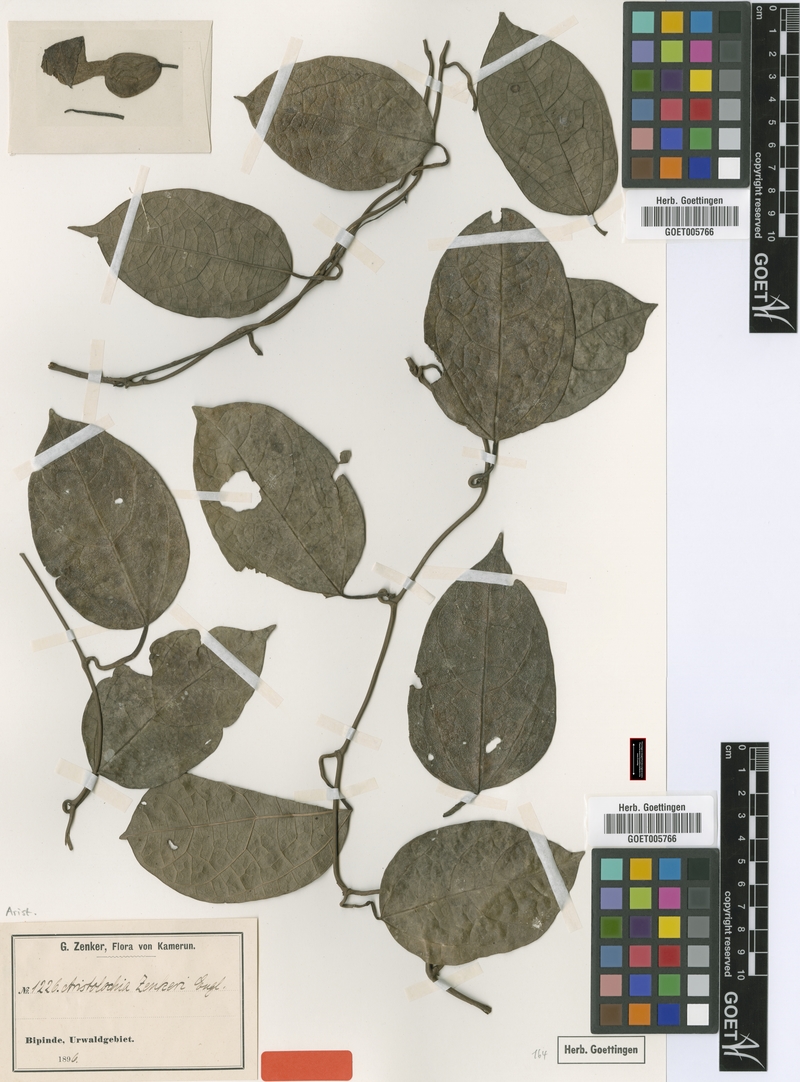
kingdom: Plantae
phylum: Tracheophyta
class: Magnoliopsida
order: Piperales
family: Aristolochiaceae
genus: Aristolochia
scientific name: Aristolochia zenkeri
